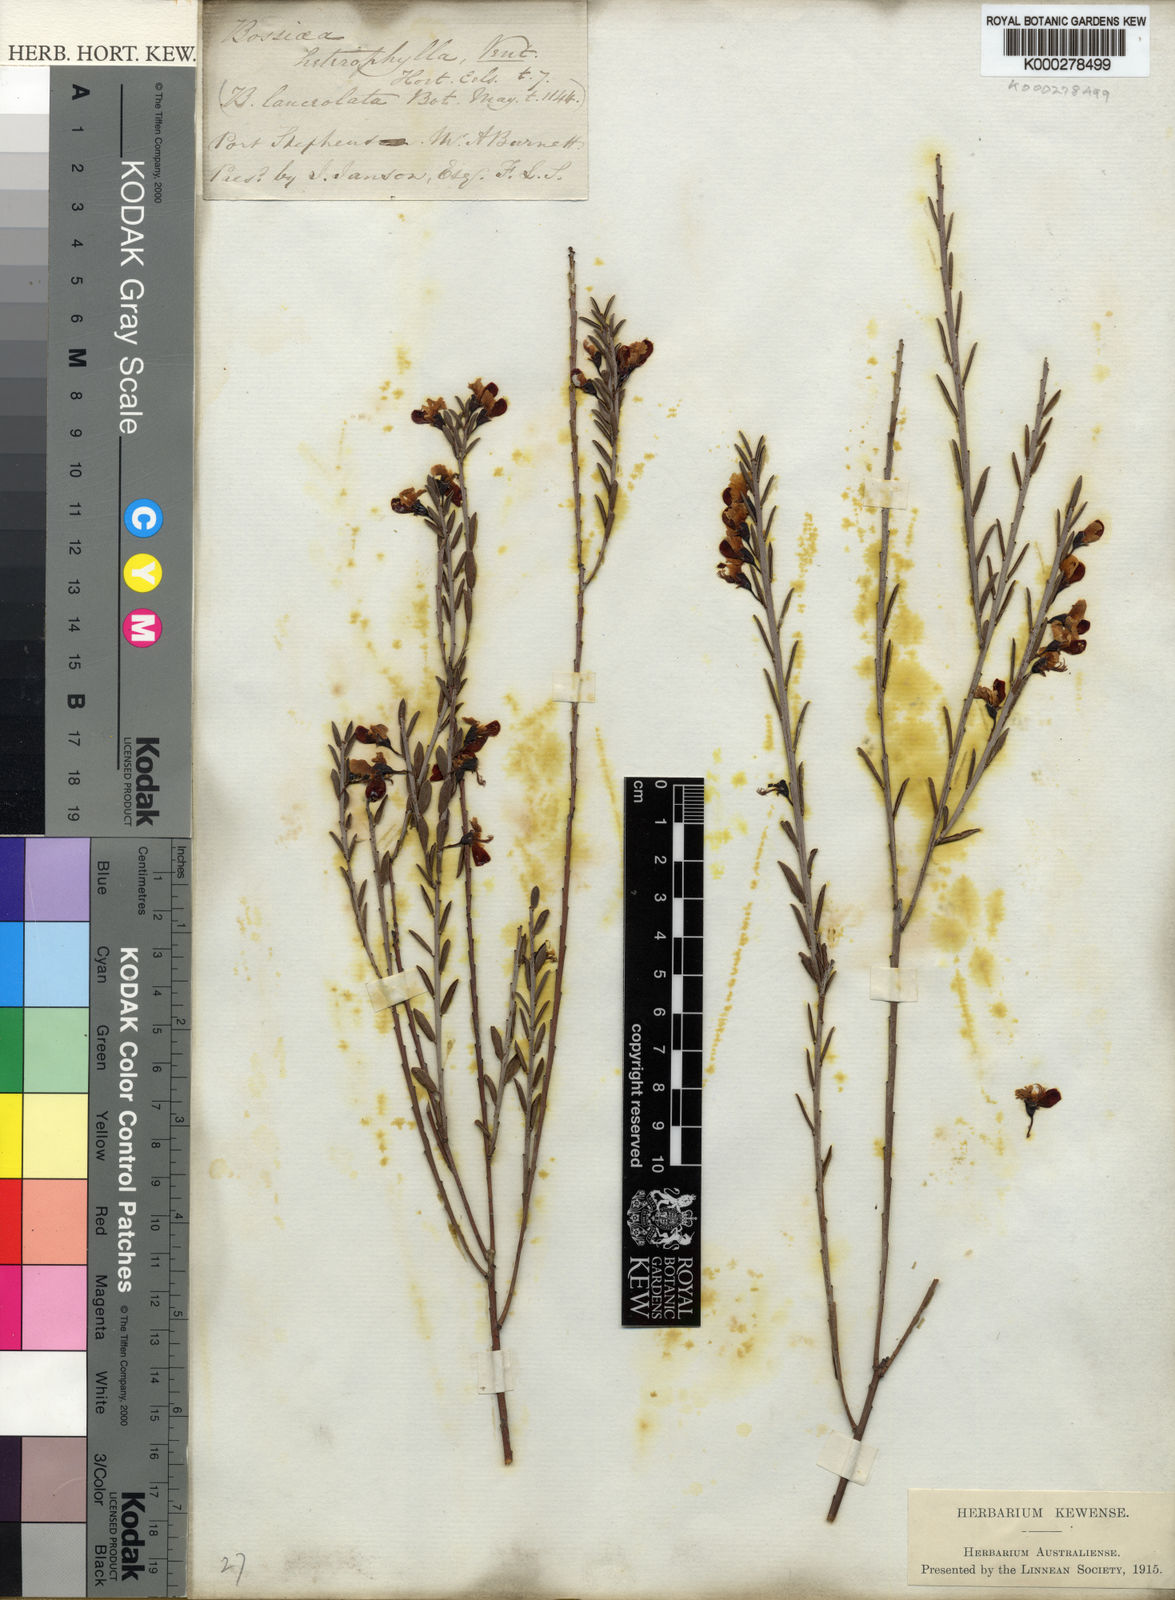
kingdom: Plantae
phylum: Tracheophyta
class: Magnoliopsida
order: Fabales
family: Fabaceae
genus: Bossiaea
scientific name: Bossiaea heterophylla
